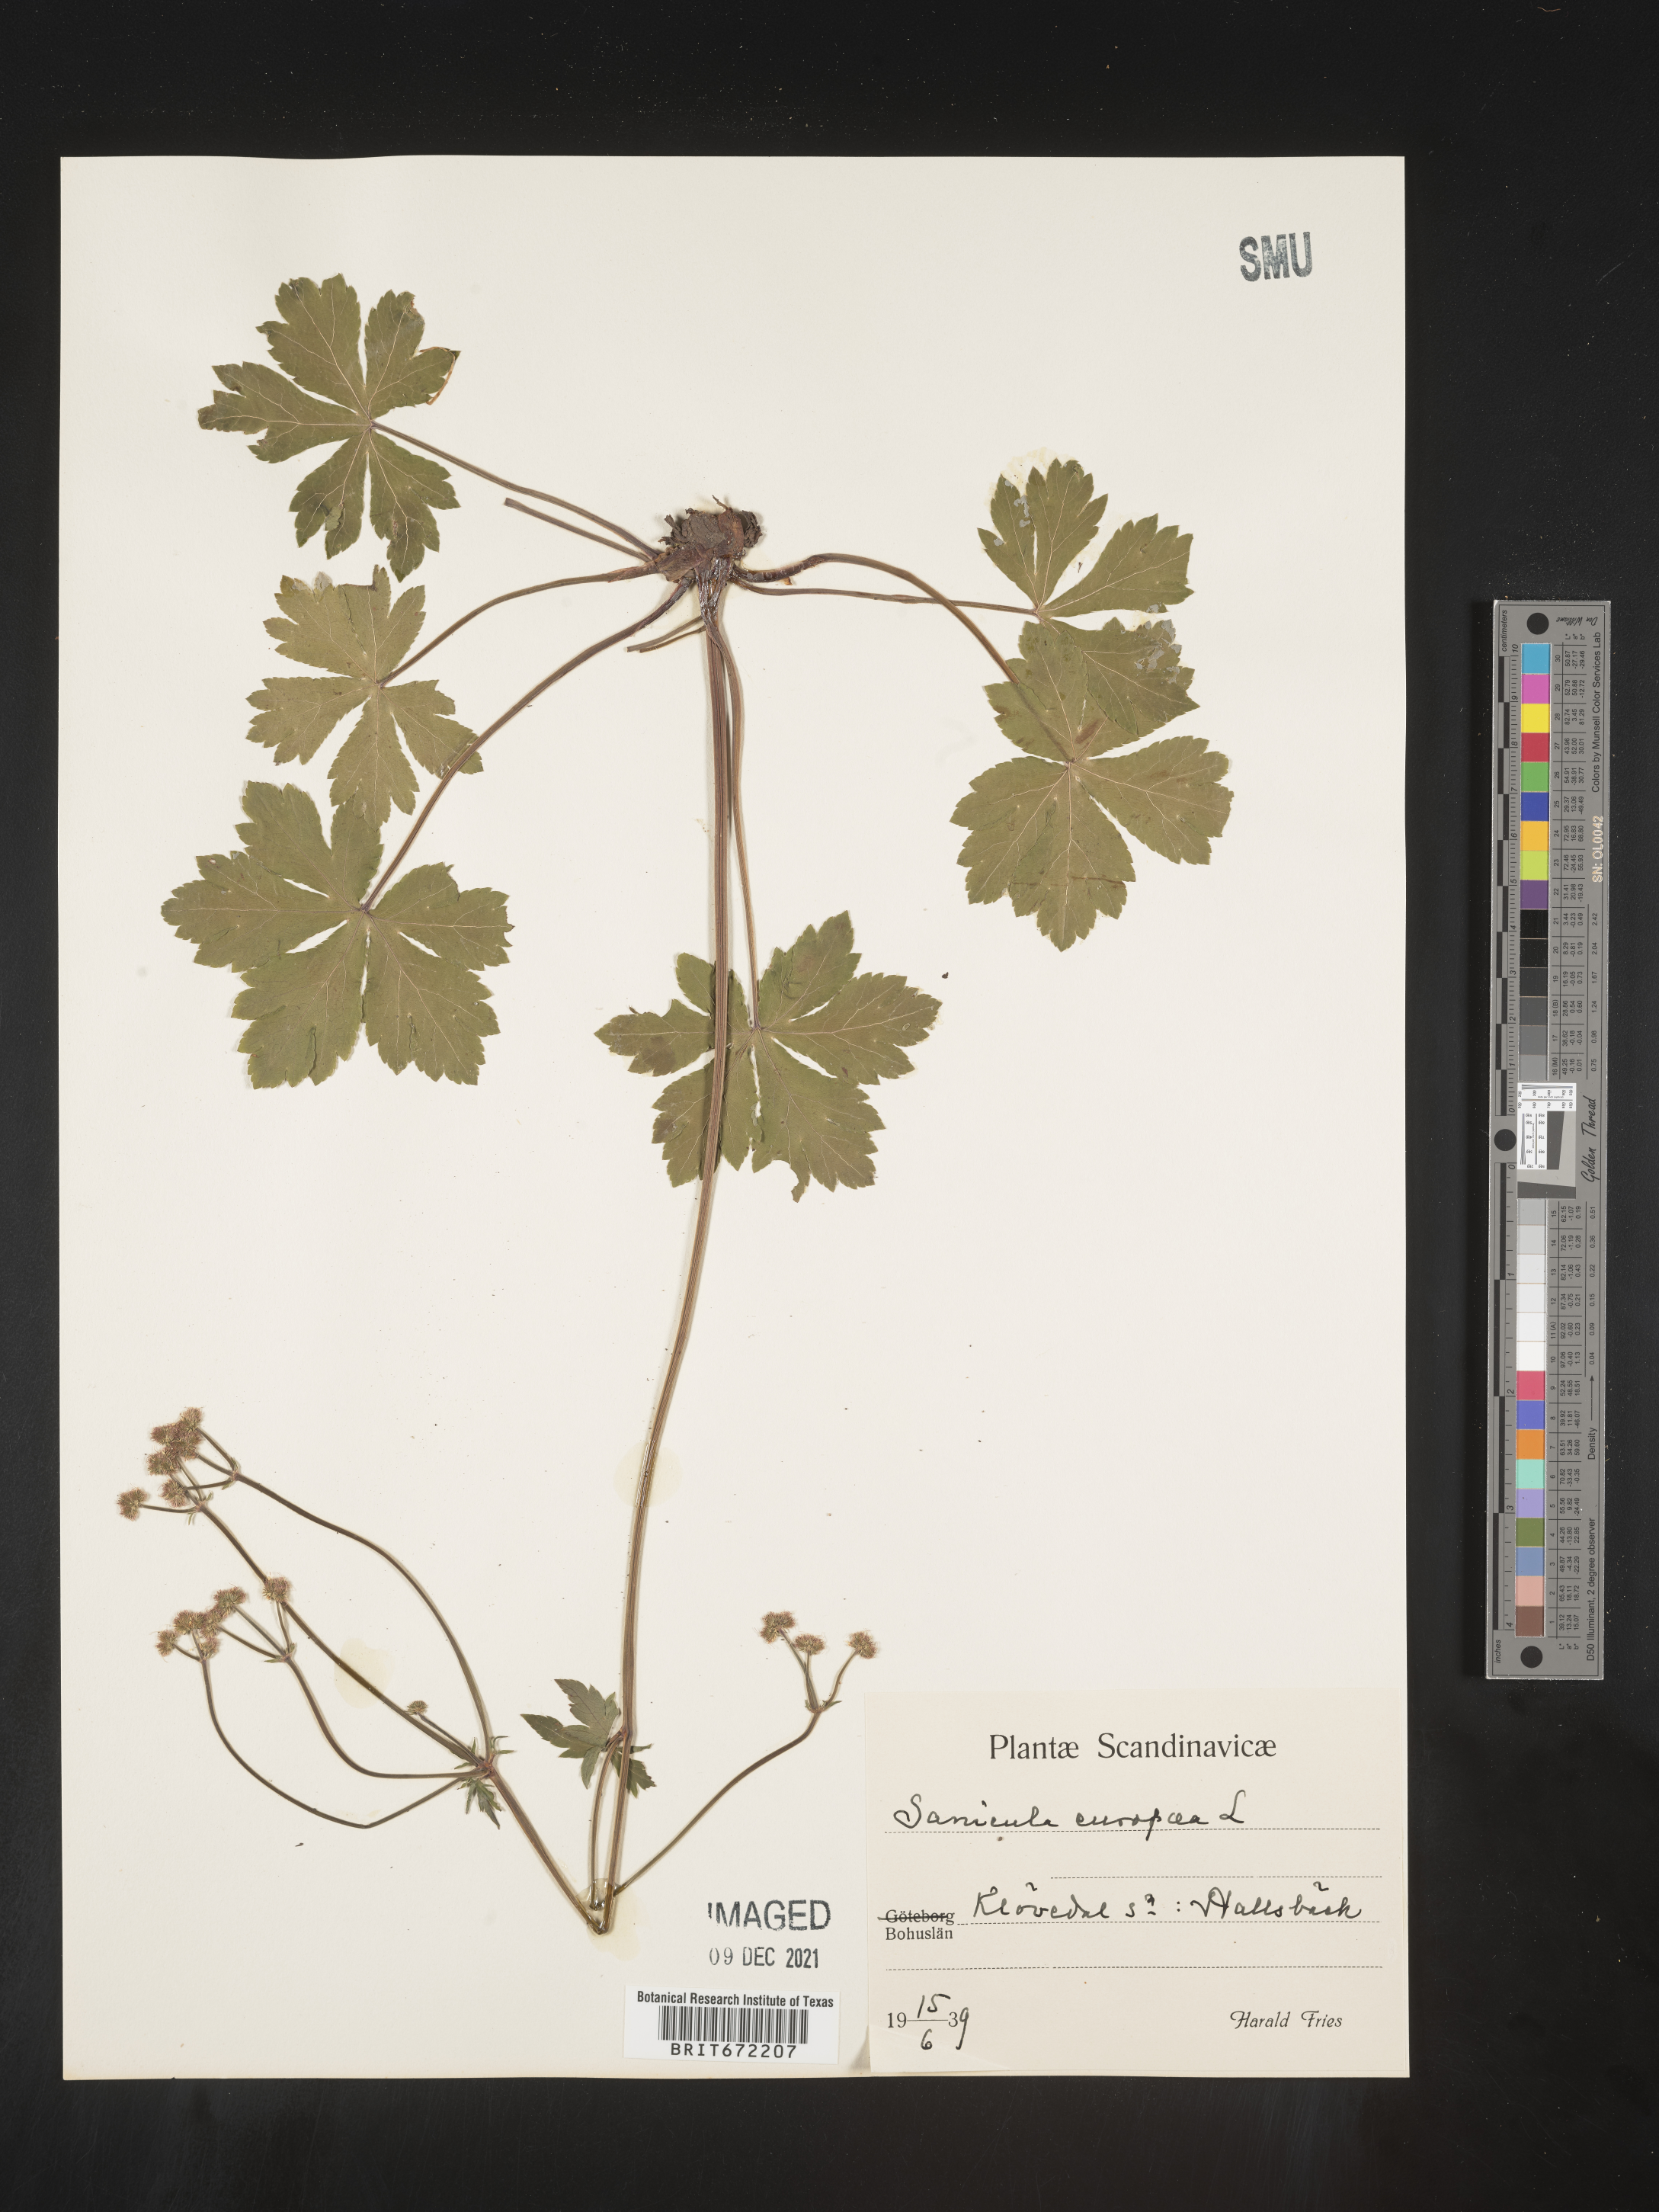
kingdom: Plantae
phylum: Tracheophyta
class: Magnoliopsida
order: Apiales
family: Apiaceae
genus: Sanicula
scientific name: Sanicula
